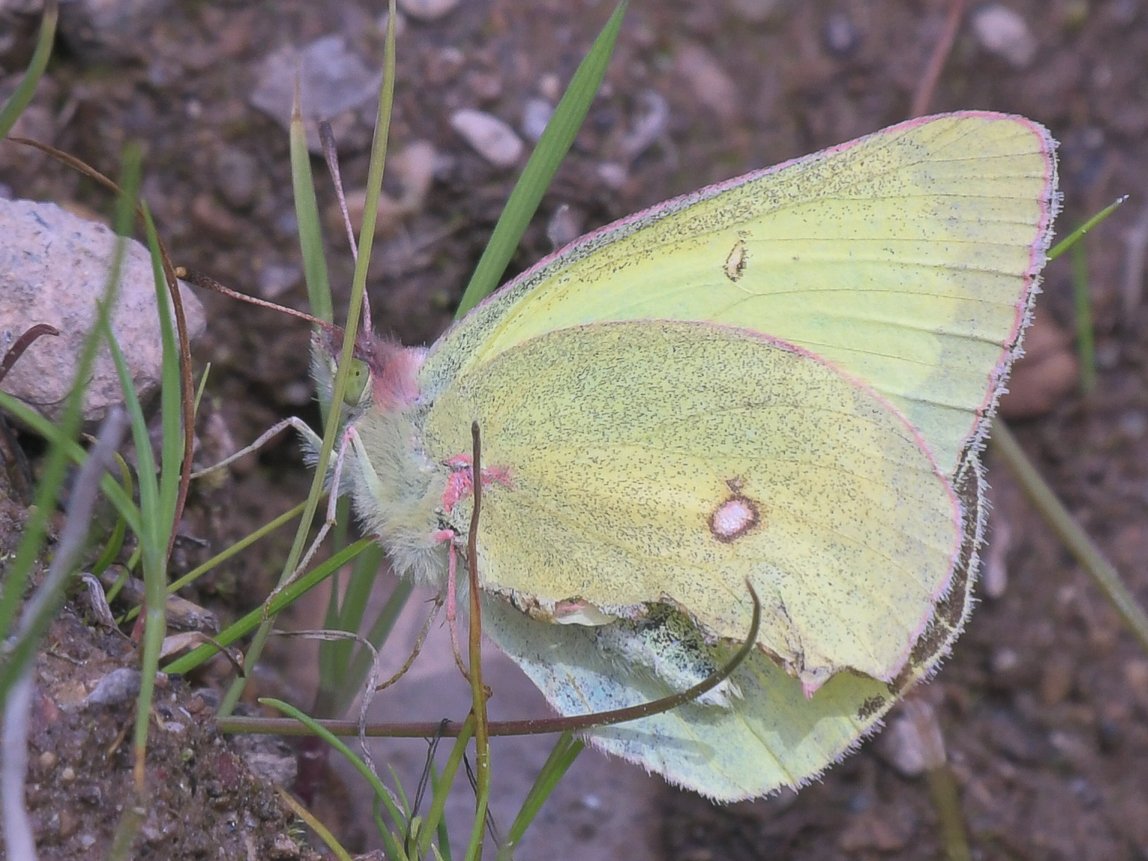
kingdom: Animalia
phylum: Arthropoda
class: Insecta
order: Lepidoptera
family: Pieridae
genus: Colias
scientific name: Colias gigantea
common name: Giant Sulphur
